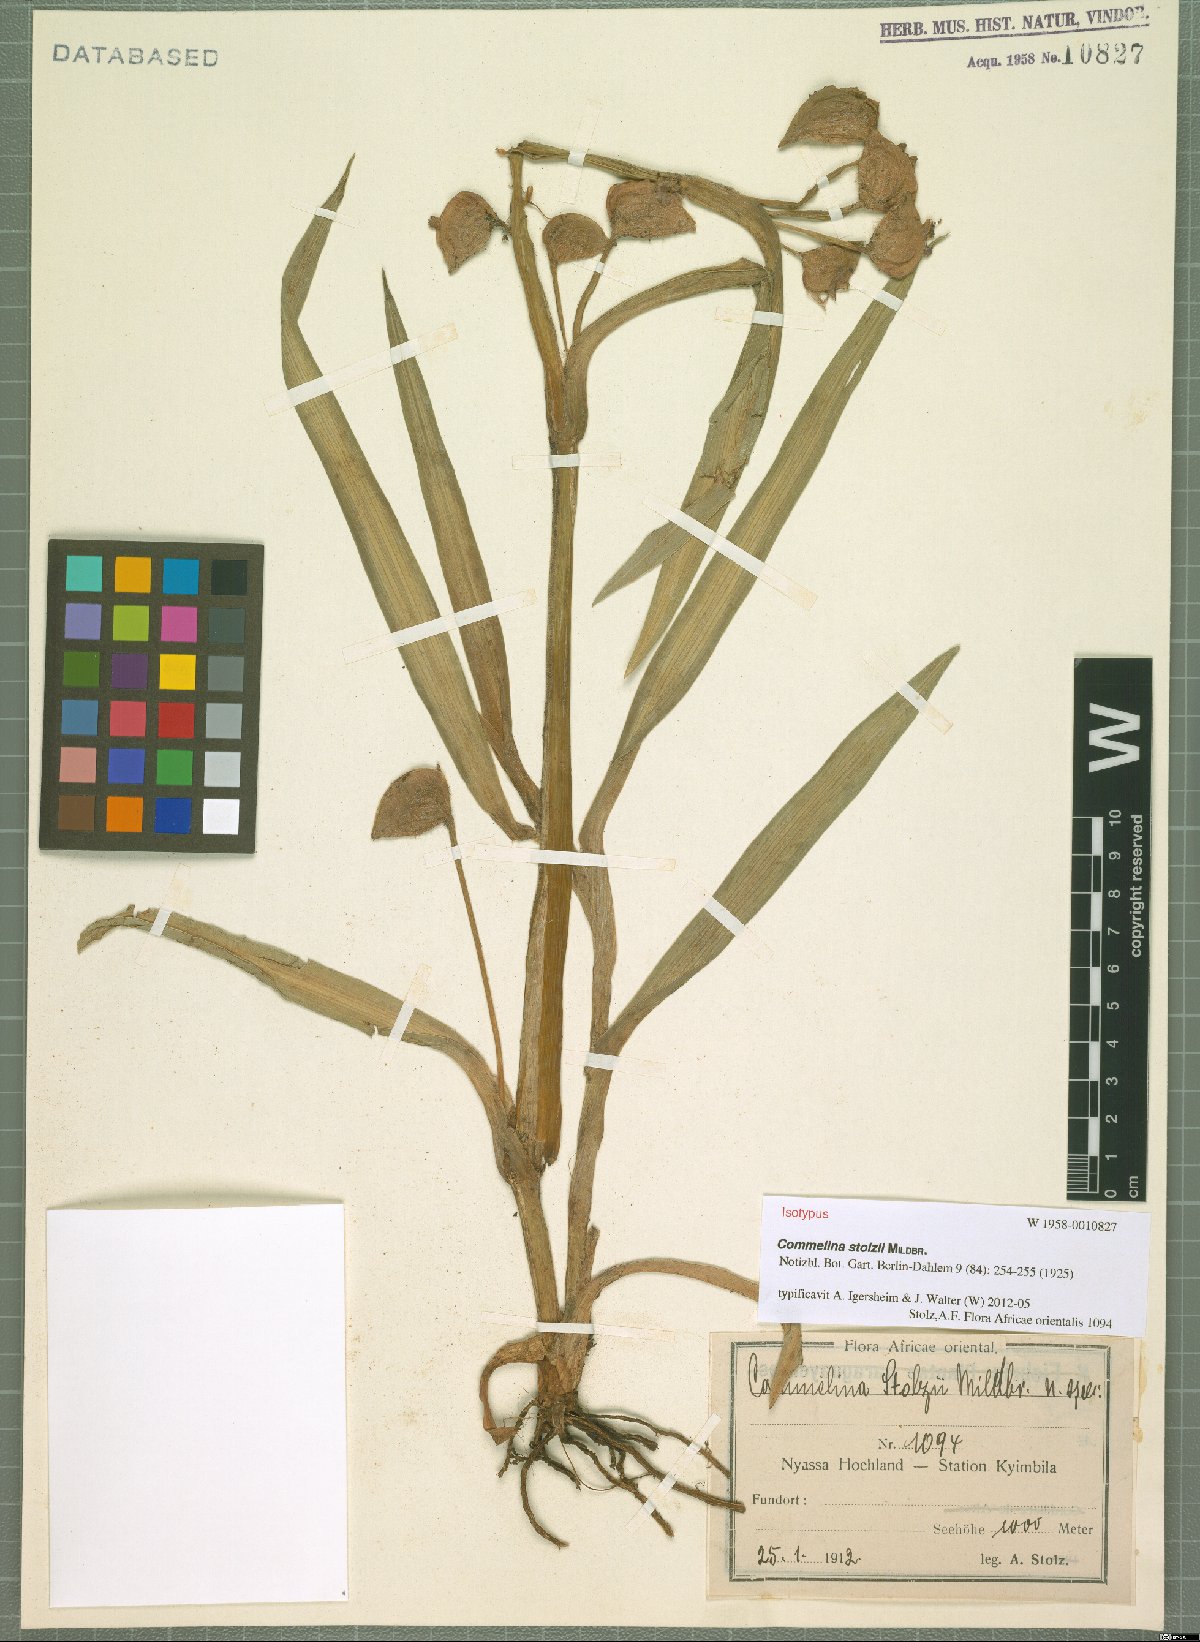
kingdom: Plantae
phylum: Tracheophyta
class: Liliopsida
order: Commelinales
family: Commelinaceae
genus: Commelina
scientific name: Commelina schweinfurthii
